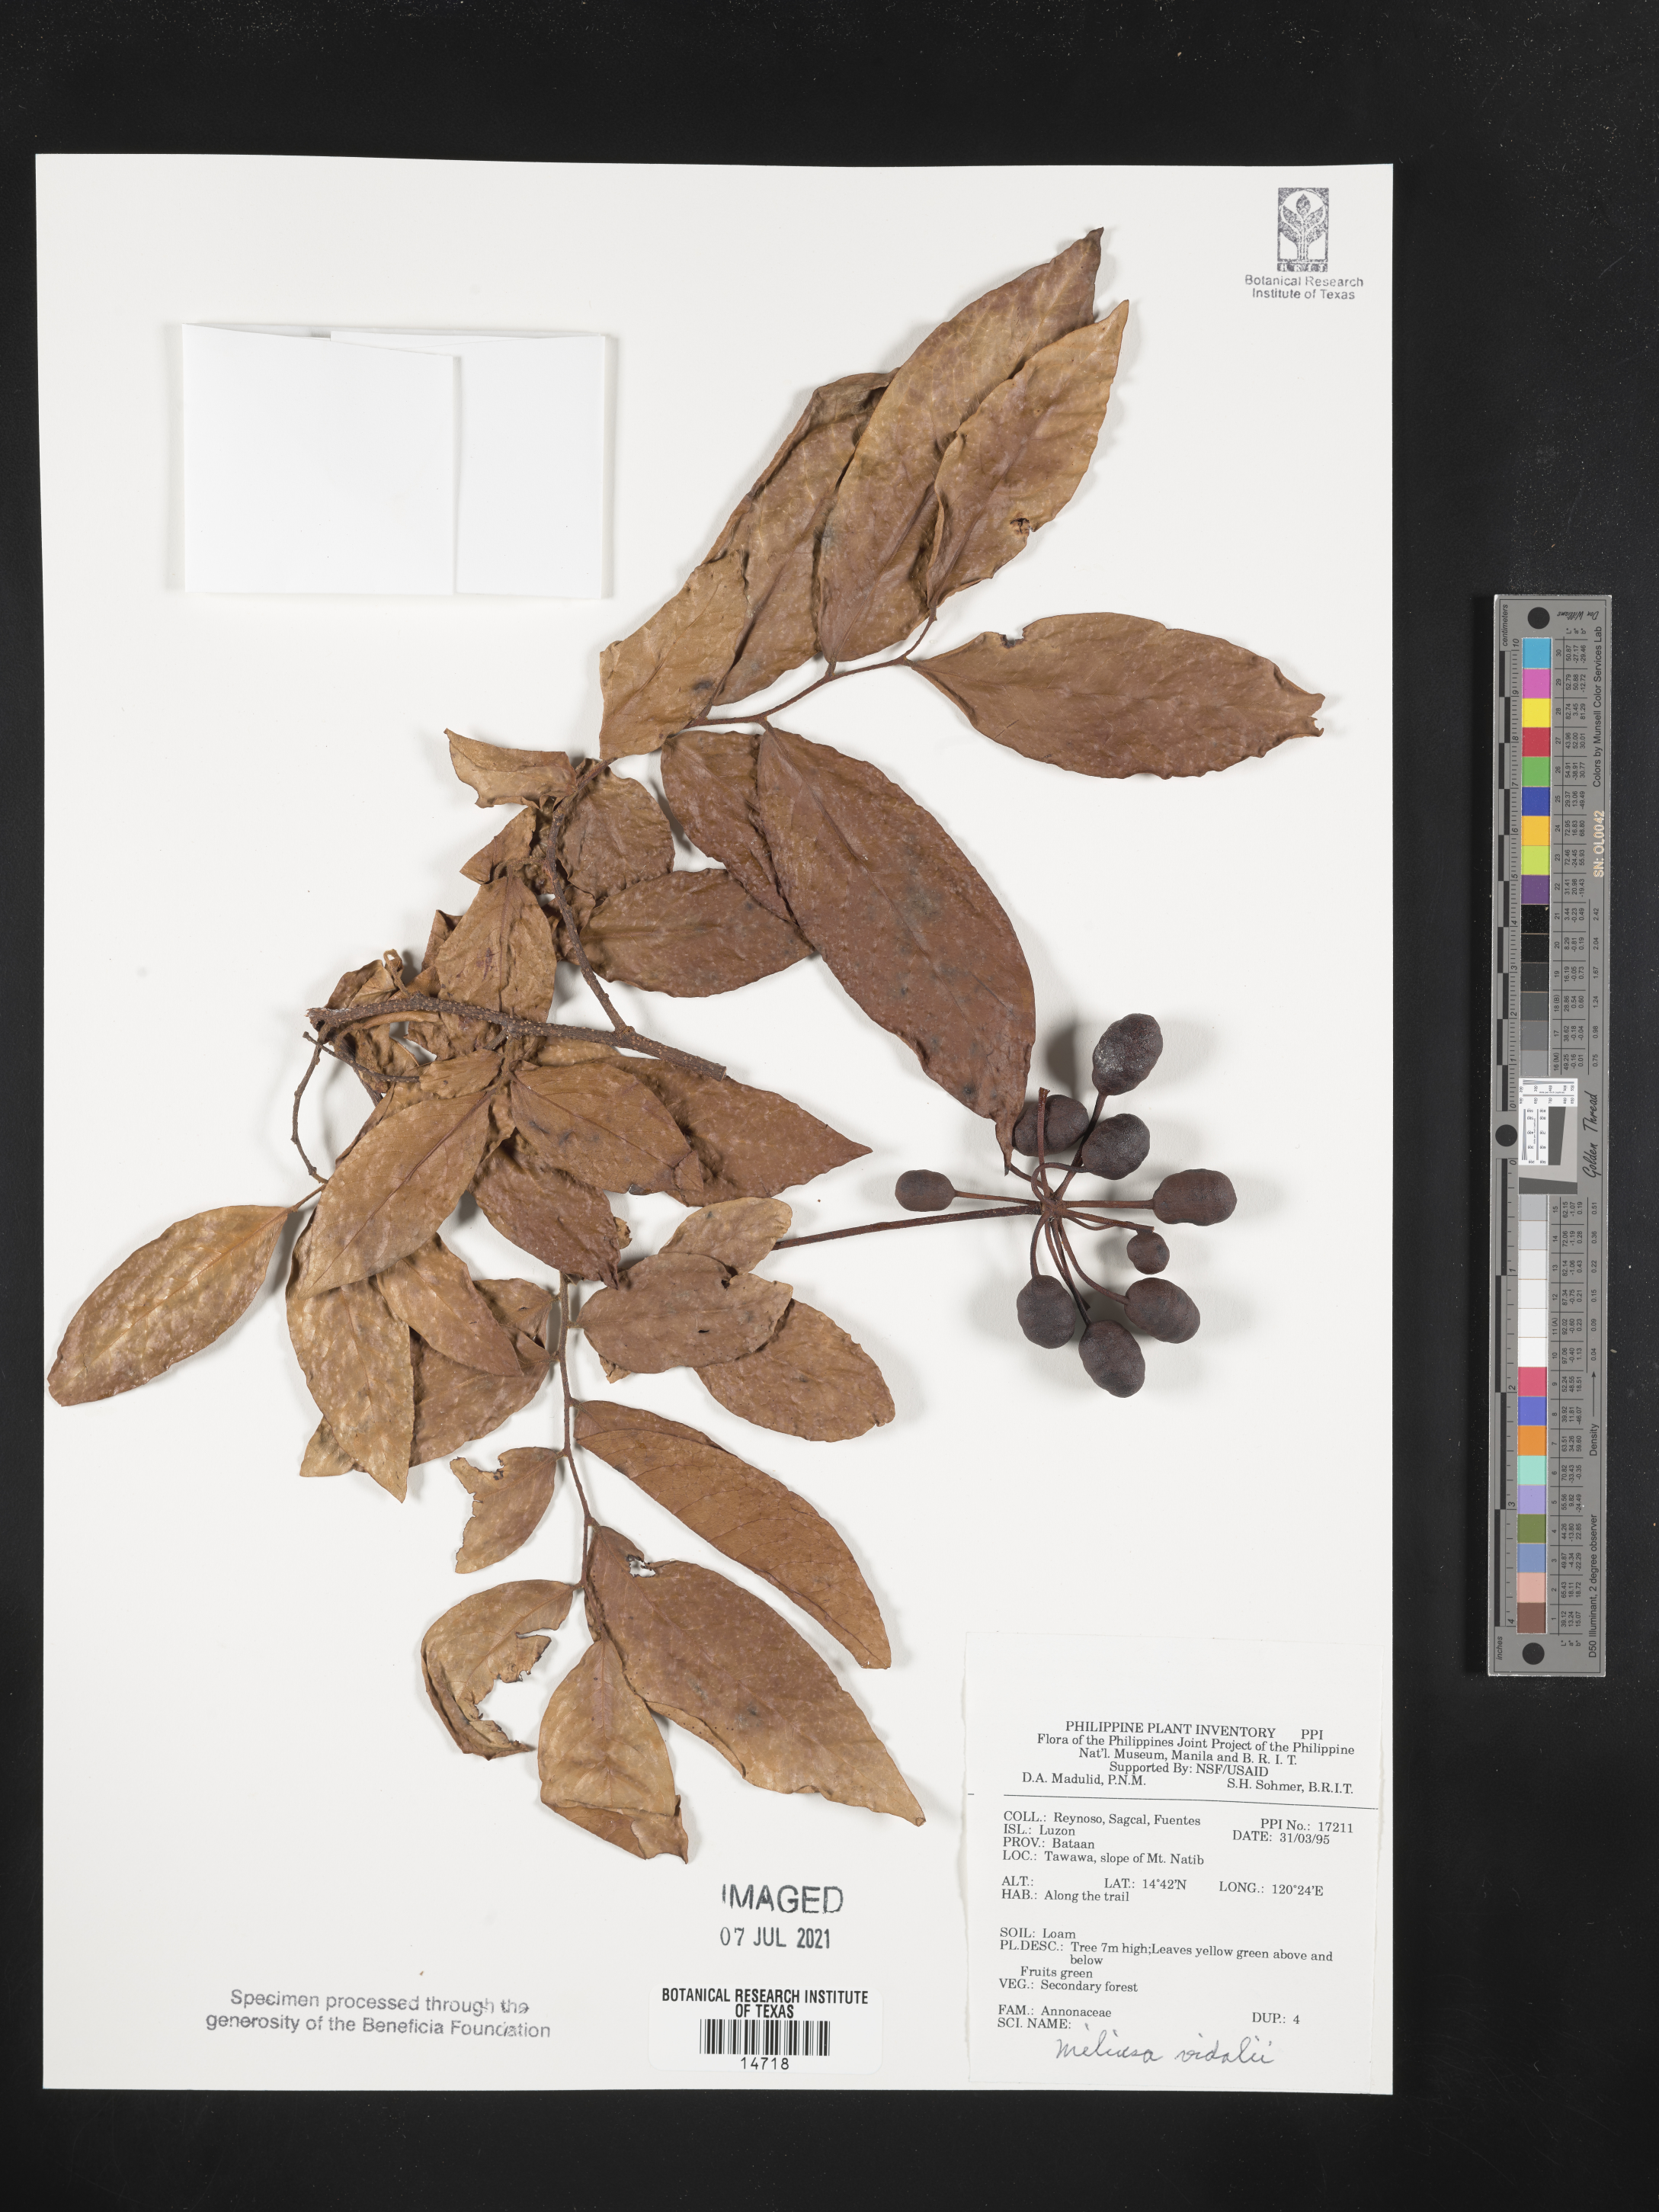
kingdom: Plantae
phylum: Tracheophyta
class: Magnoliopsida
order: Magnoliales
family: Annonaceae
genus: Miliusa
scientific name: Miliusa vidalii
